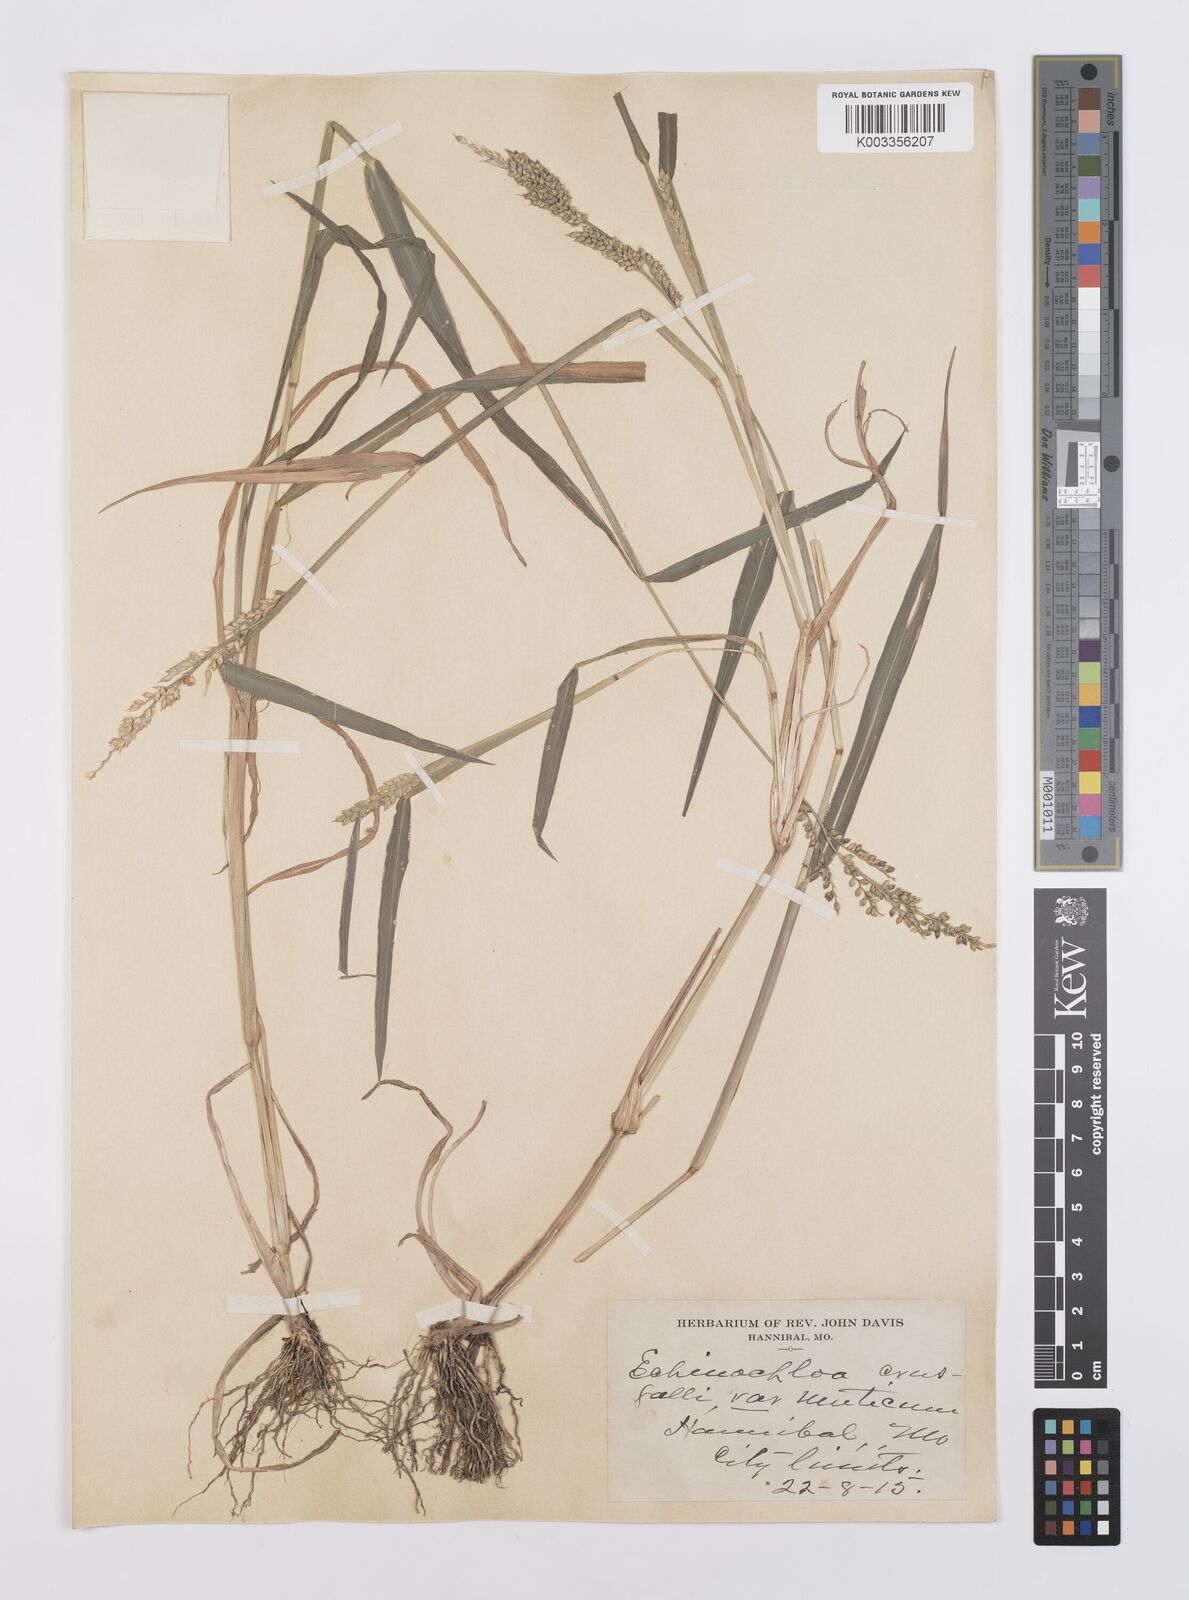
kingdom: Plantae
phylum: Tracheophyta
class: Liliopsida
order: Poales
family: Poaceae
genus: Echinochloa
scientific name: Echinochloa crus-galli
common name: Cockspur
